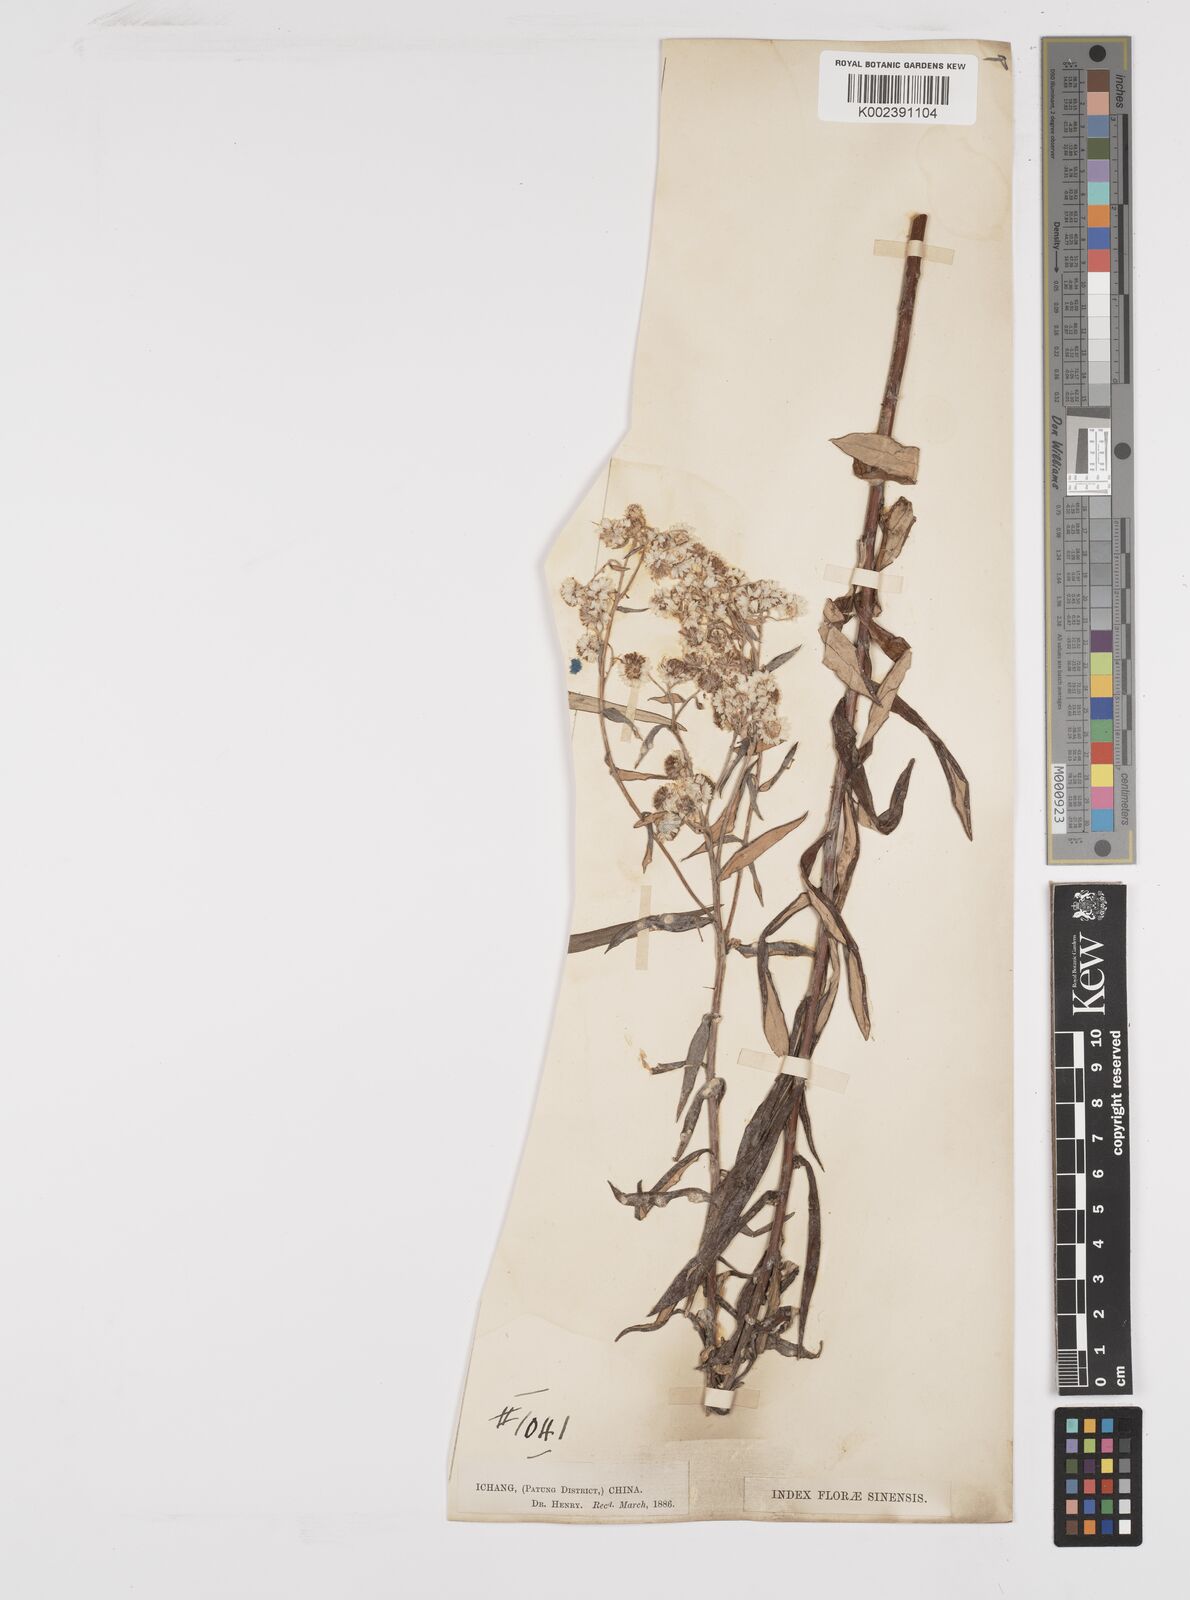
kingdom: Plantae
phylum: Tracheophyta
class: Magnoliopsida
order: Asterales
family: Asteraceae
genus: Anaphalis
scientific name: Anaphalis margaritacea
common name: Pearly everlasting
